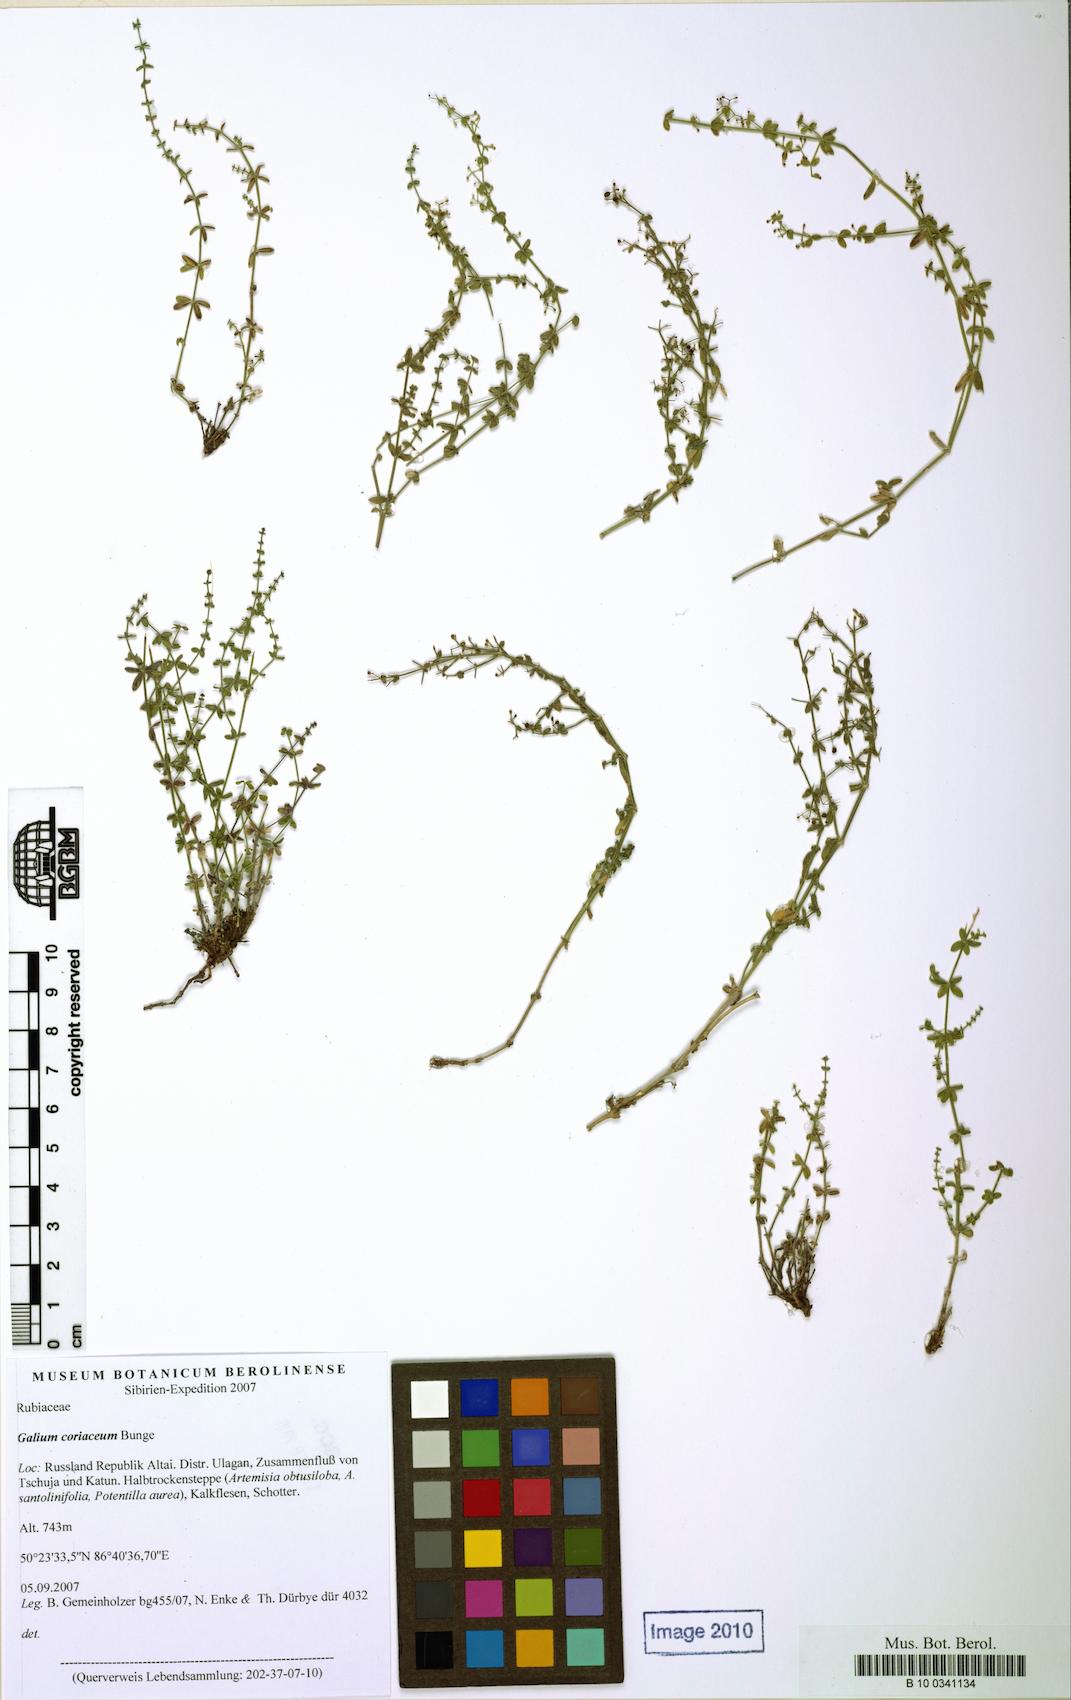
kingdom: Plantae
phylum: Tracheophyta
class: Magnoliopsida
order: Gentianales
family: Rubiaceae
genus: Galium
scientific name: Galium coriaceum
